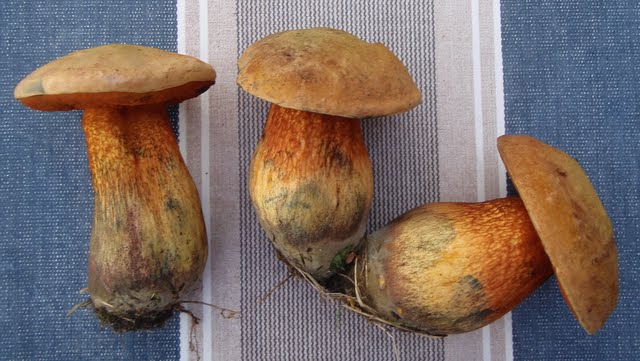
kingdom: Fungi
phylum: Basidiomycota
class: Agaricomycetes
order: Boletales
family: Boletaceae
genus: Suillellus
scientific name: Suillellus luridus
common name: netstokket indigorørhat
